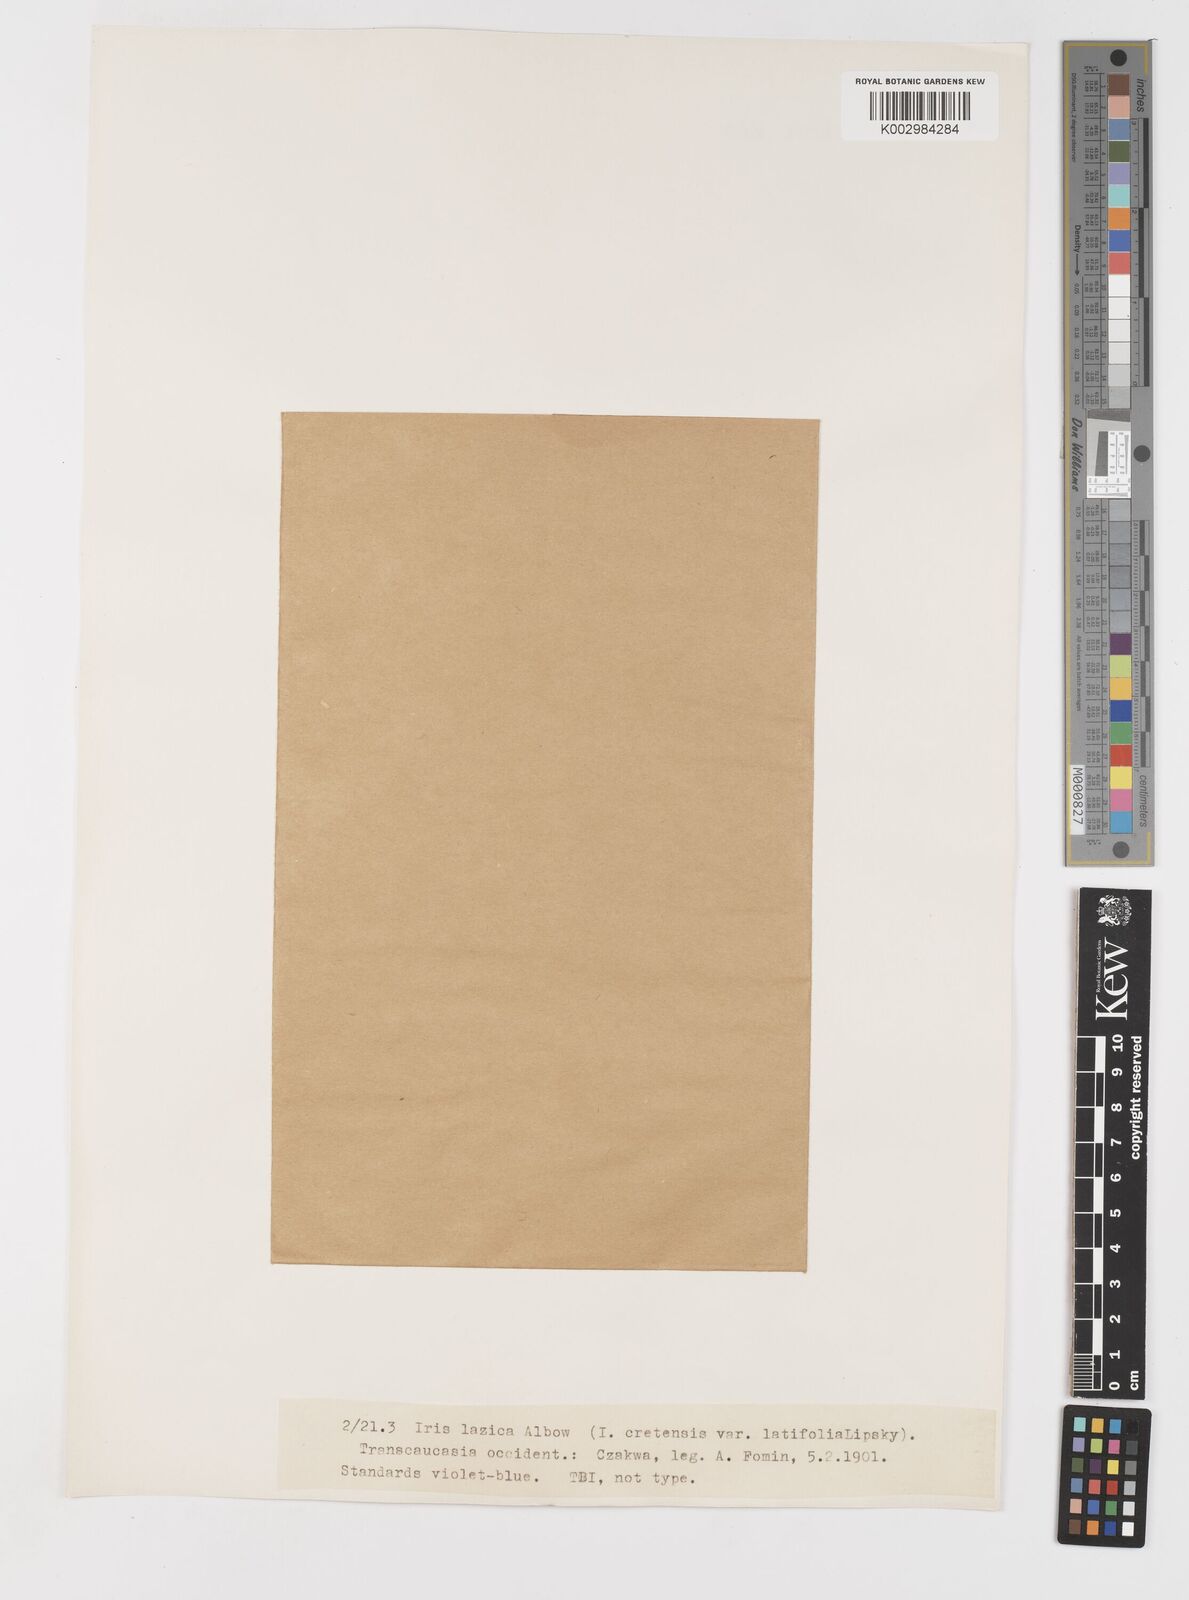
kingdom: Plantae
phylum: Tracheophyta
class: Liliopsida
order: Asparagales
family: Iridaceae
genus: Iris
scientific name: Iris lazica
